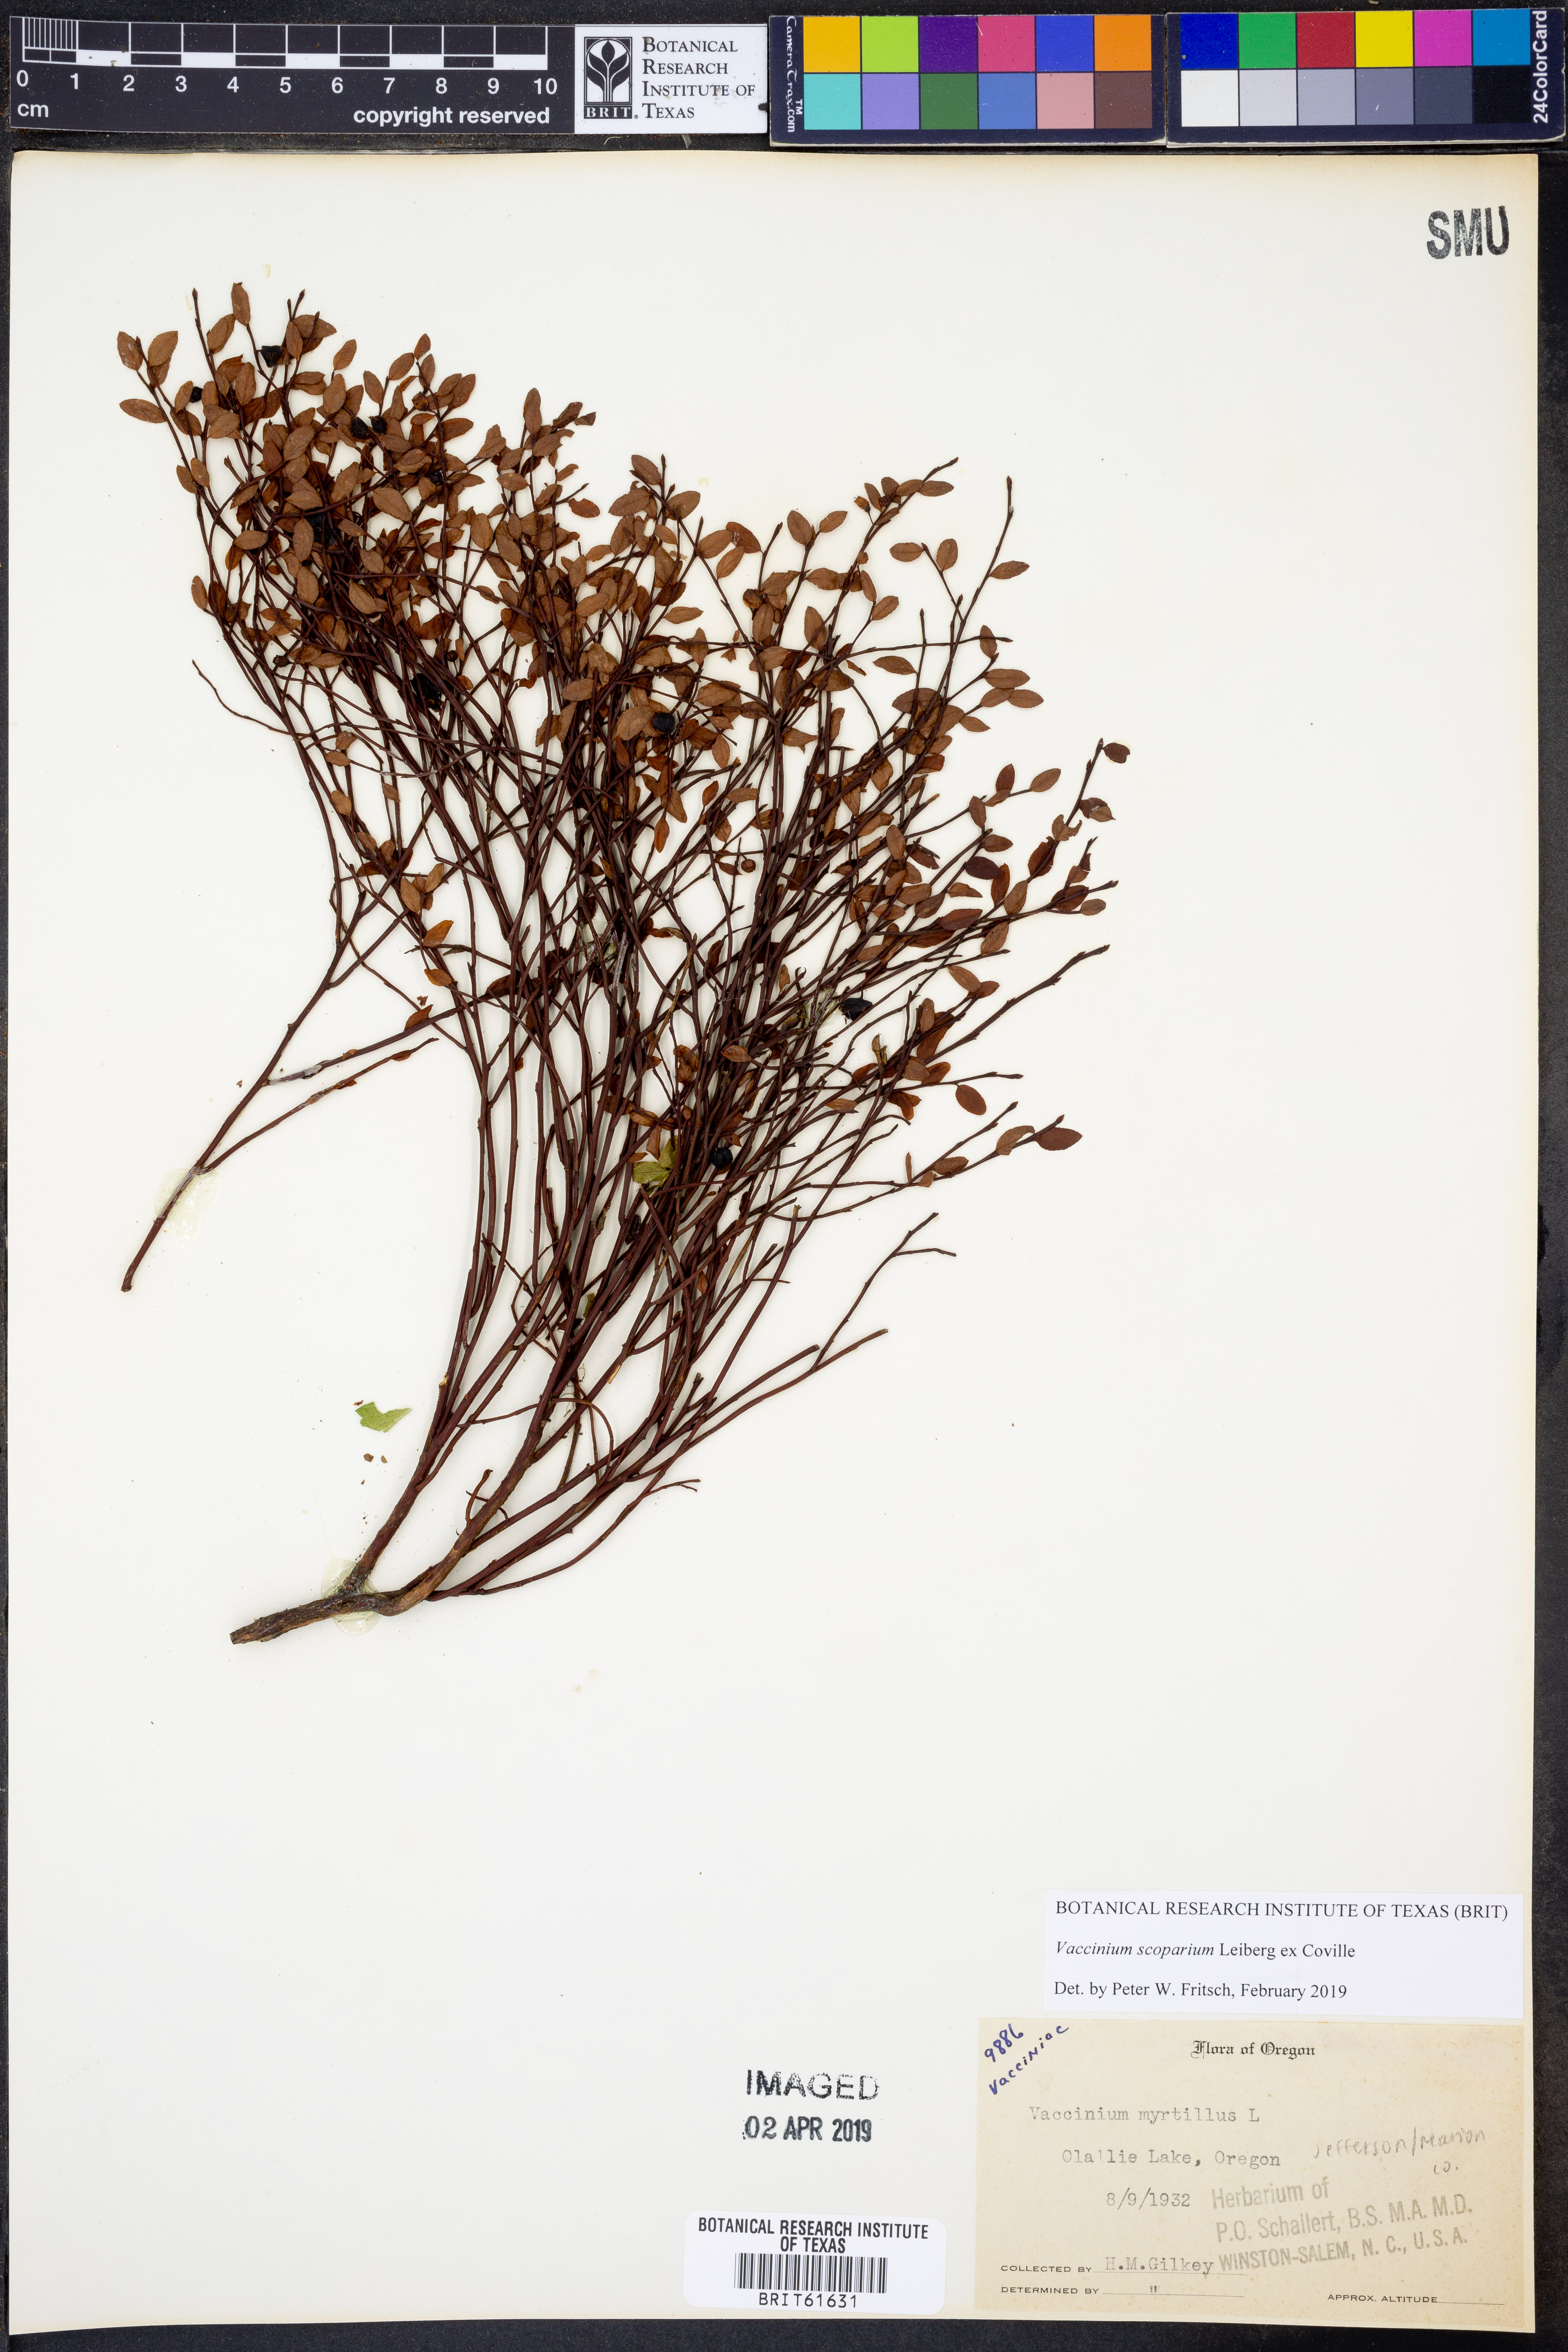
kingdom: Plantae
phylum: Tracheophyta
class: Magnoliopsida
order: Ericales
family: Ericaceae
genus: Vaccinium
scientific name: Vaccinium scoparium
